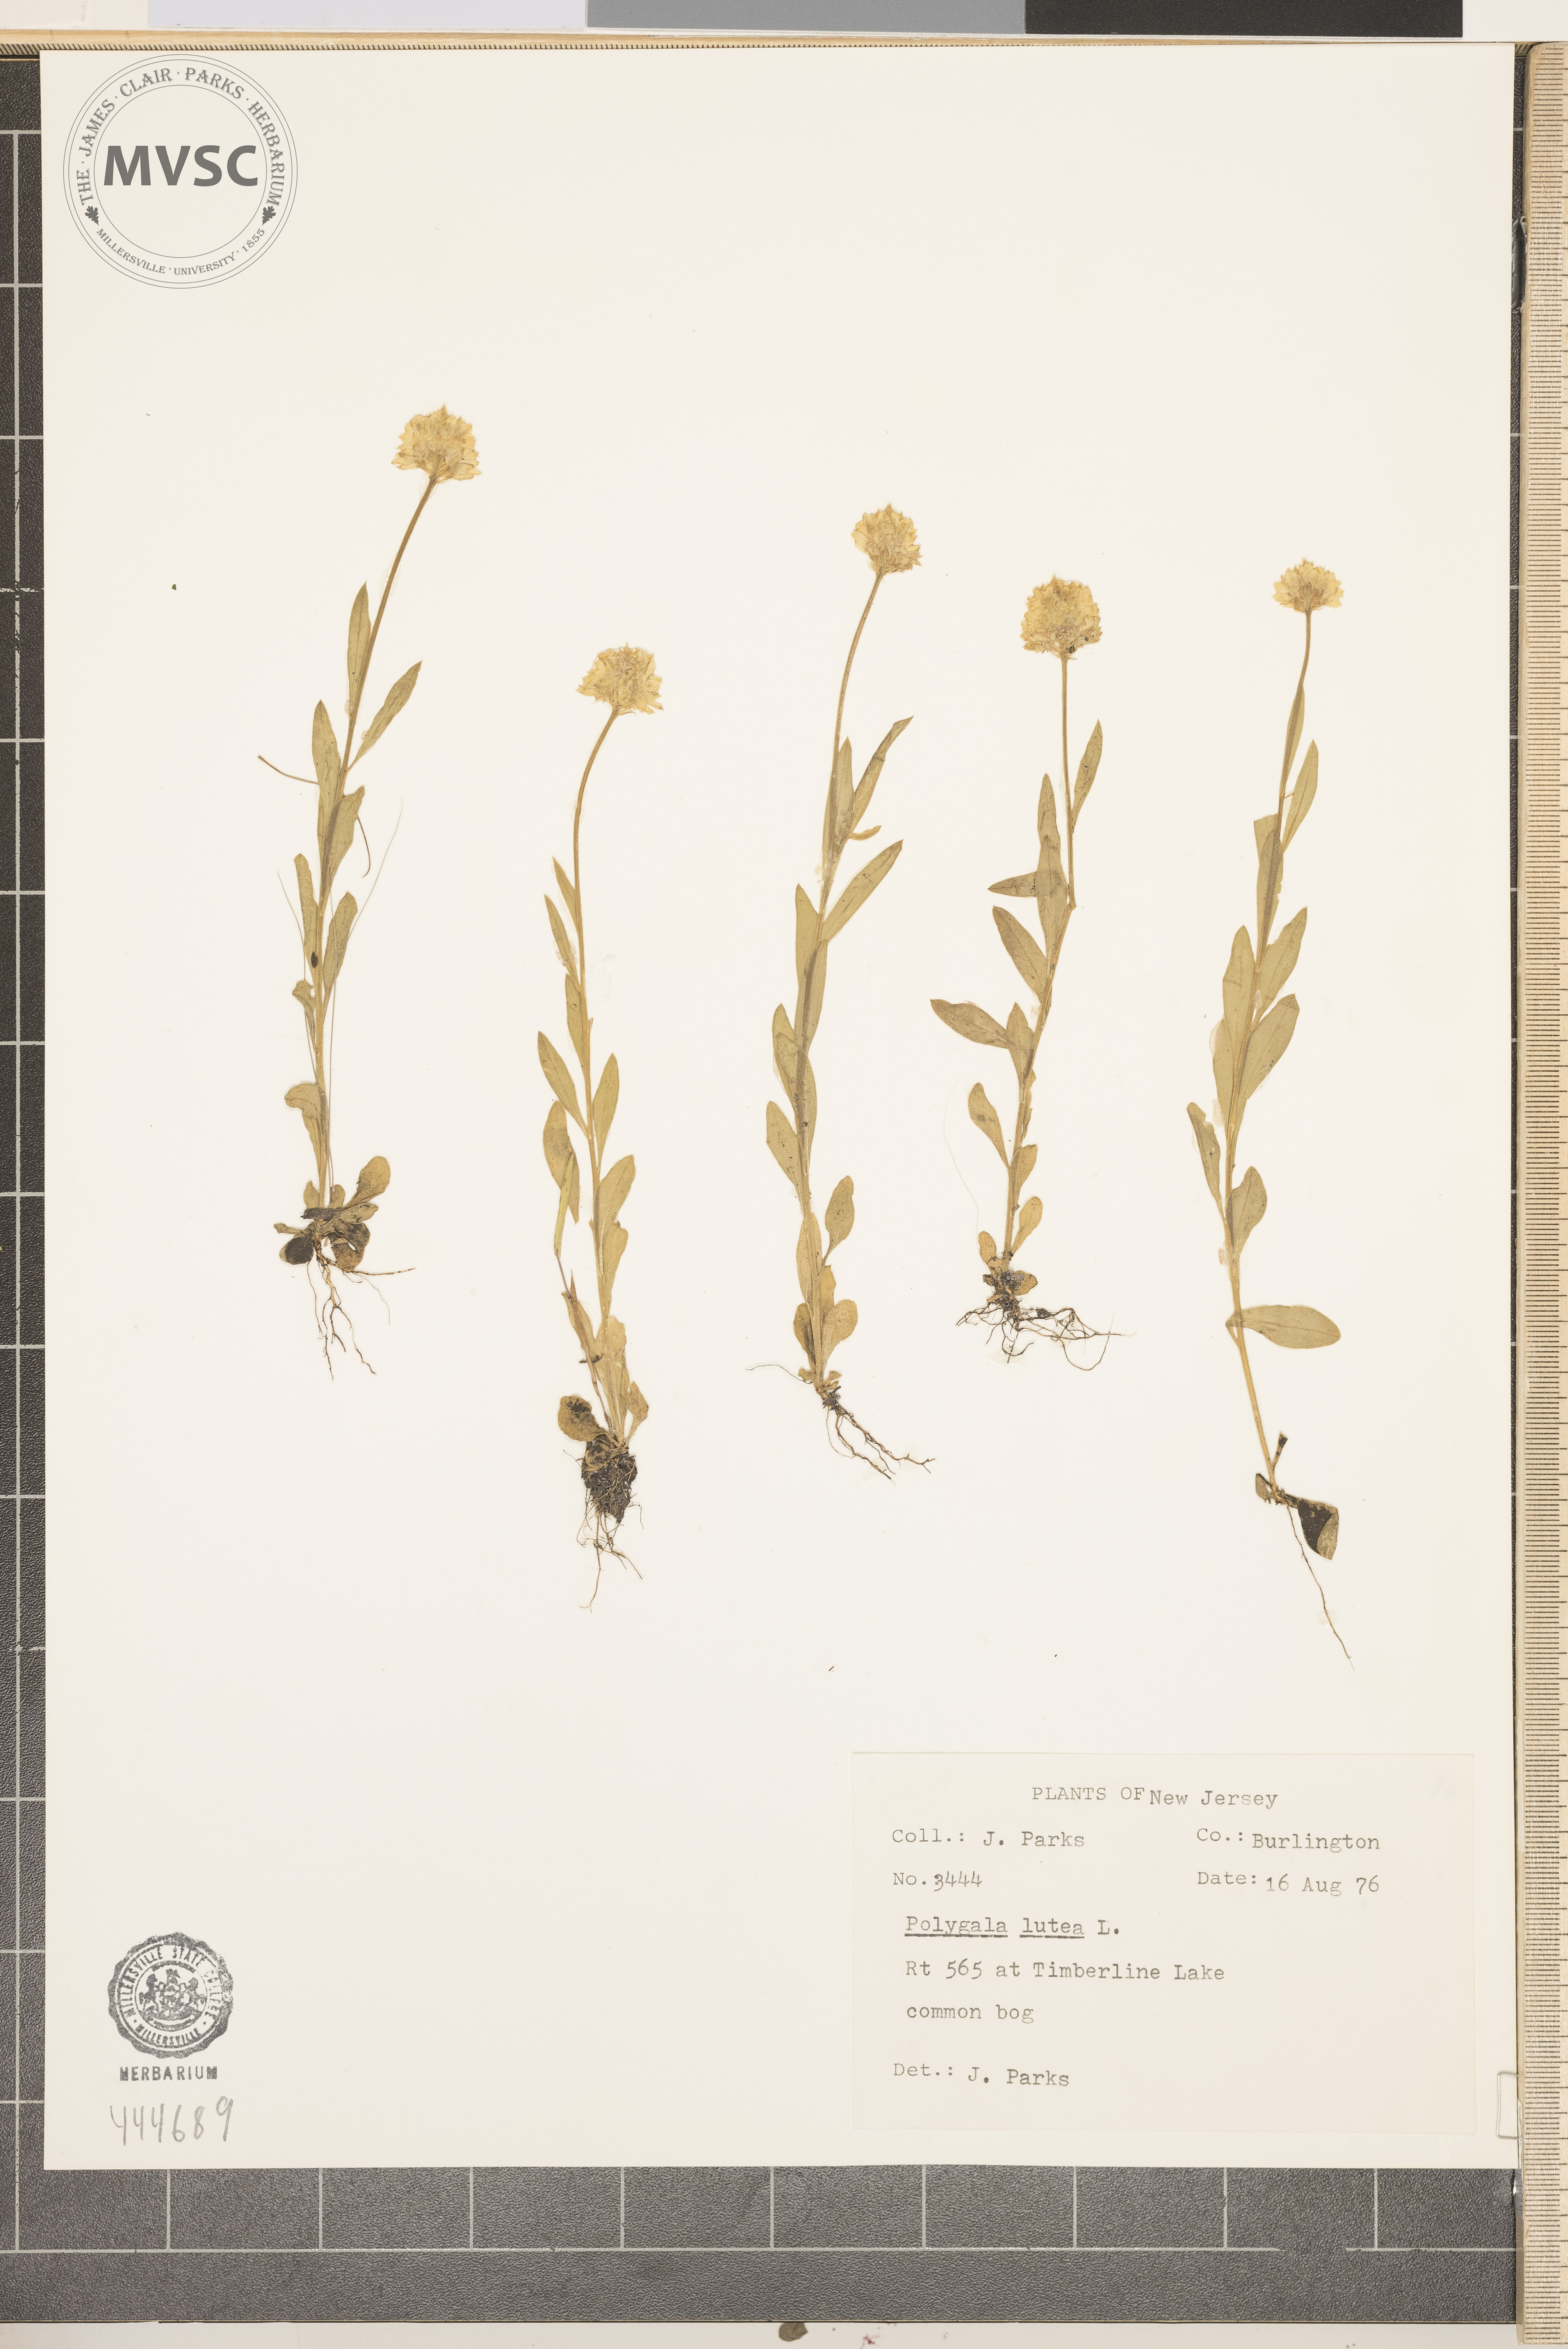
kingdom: Plantae
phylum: Tracheophyta
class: Magnoliopsida
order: Fabales
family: Polygalaceae
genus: Polygala
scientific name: Polygala lutea
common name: Orange milkwort
